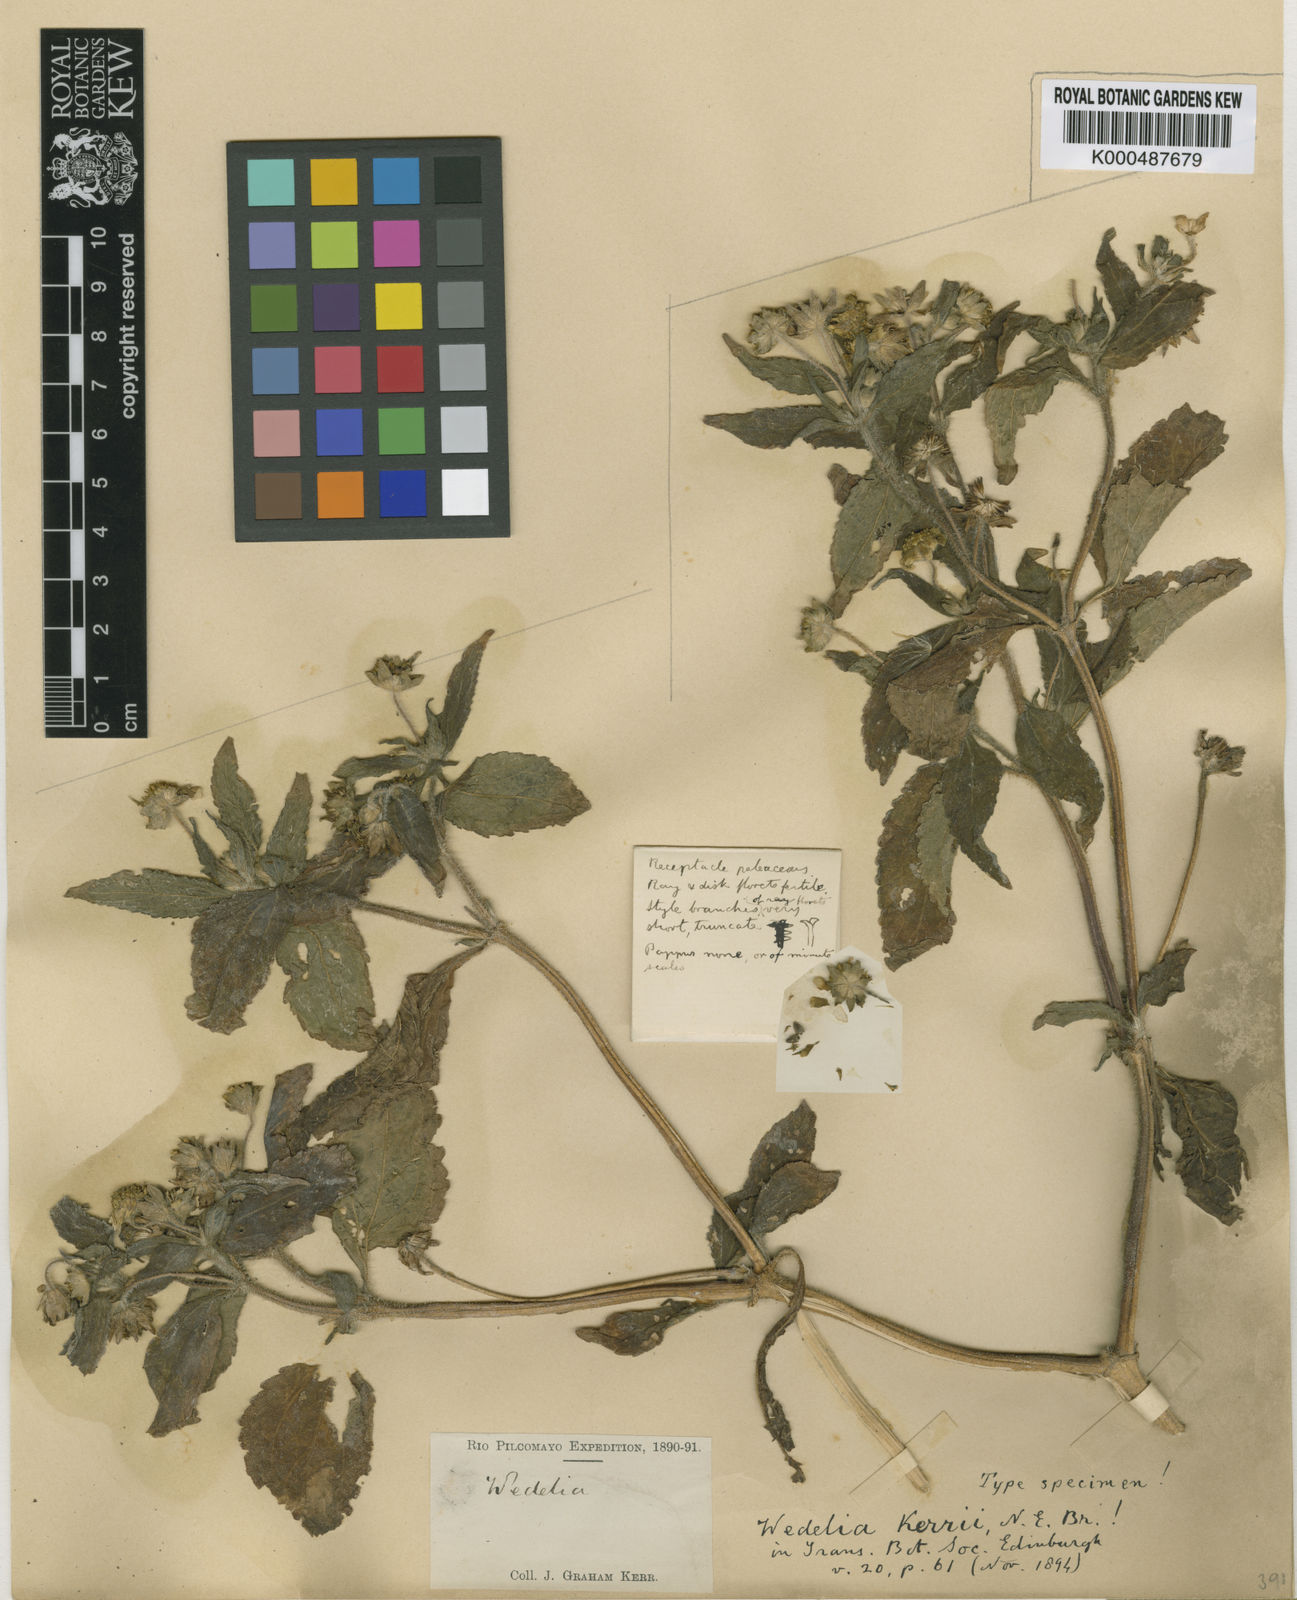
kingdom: Plantae
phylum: Tracheophyta
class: Magnoliopsida
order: Asterales
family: Asteraceae
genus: Wedelia
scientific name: Wedelia kerrii
